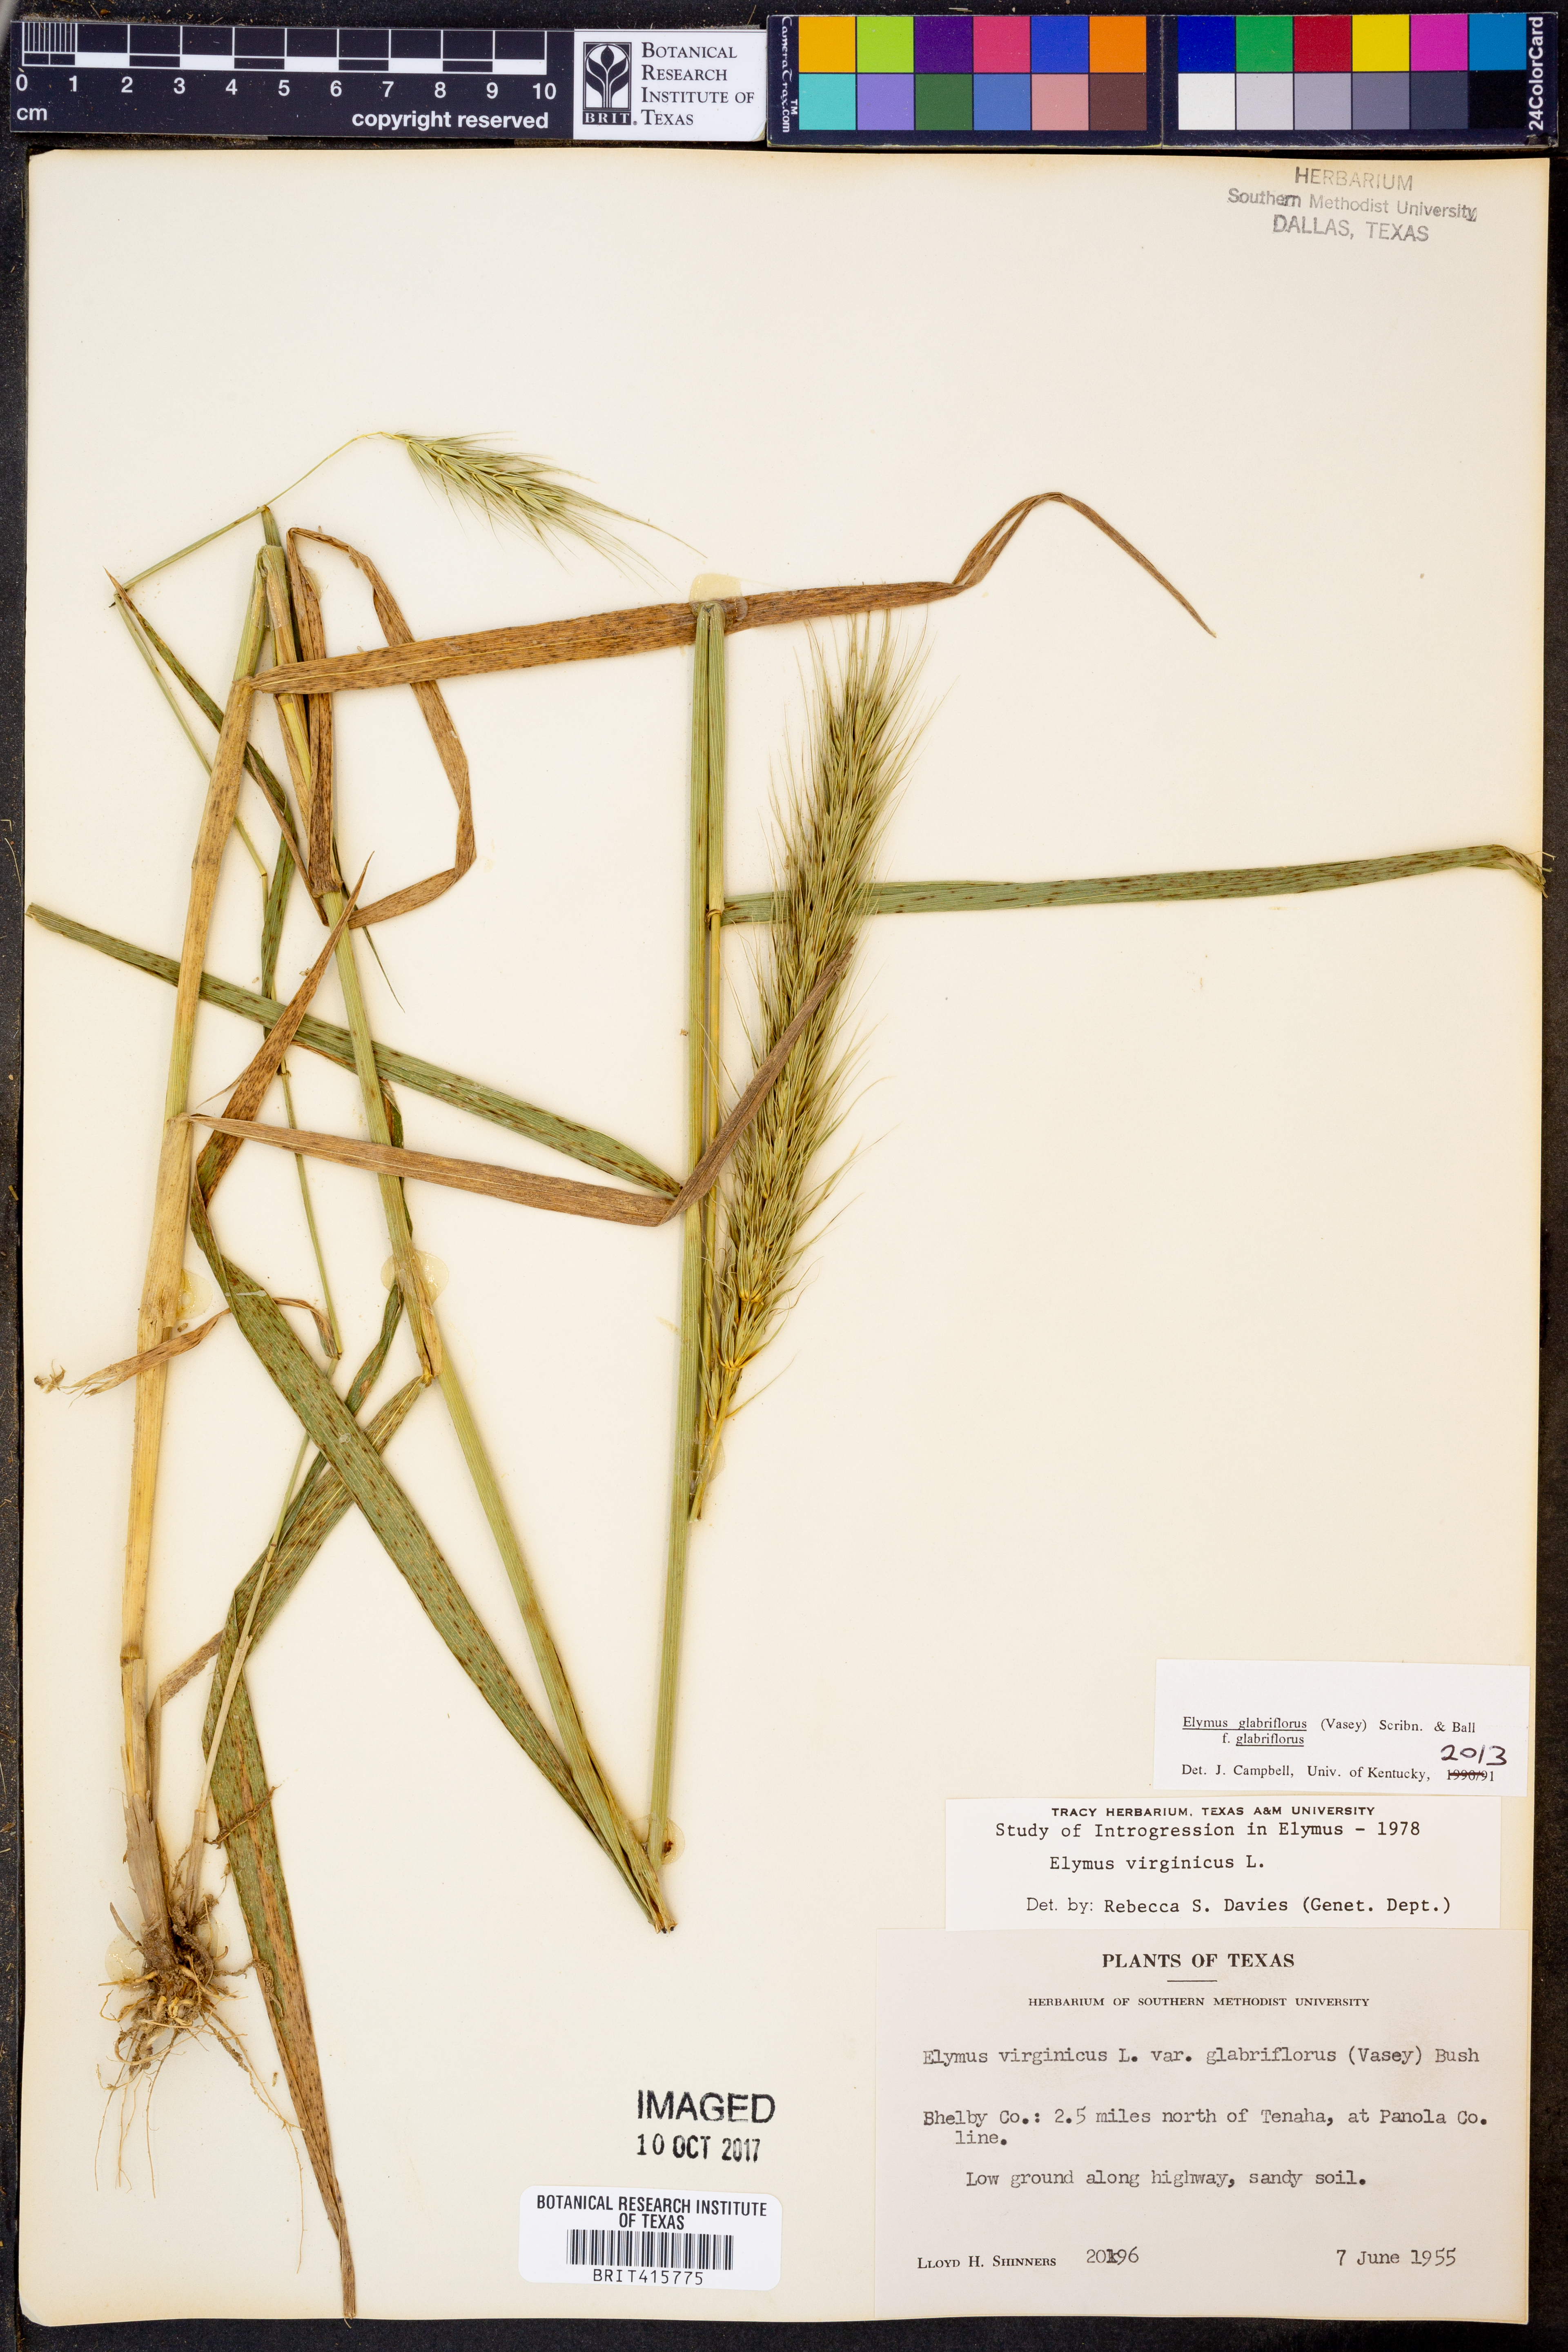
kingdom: Plantae
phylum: Tracheophyta
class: Liliopsida
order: Poales
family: Poaceae
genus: Elymus
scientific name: Elymus virginicus
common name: Common eastern wildrye
